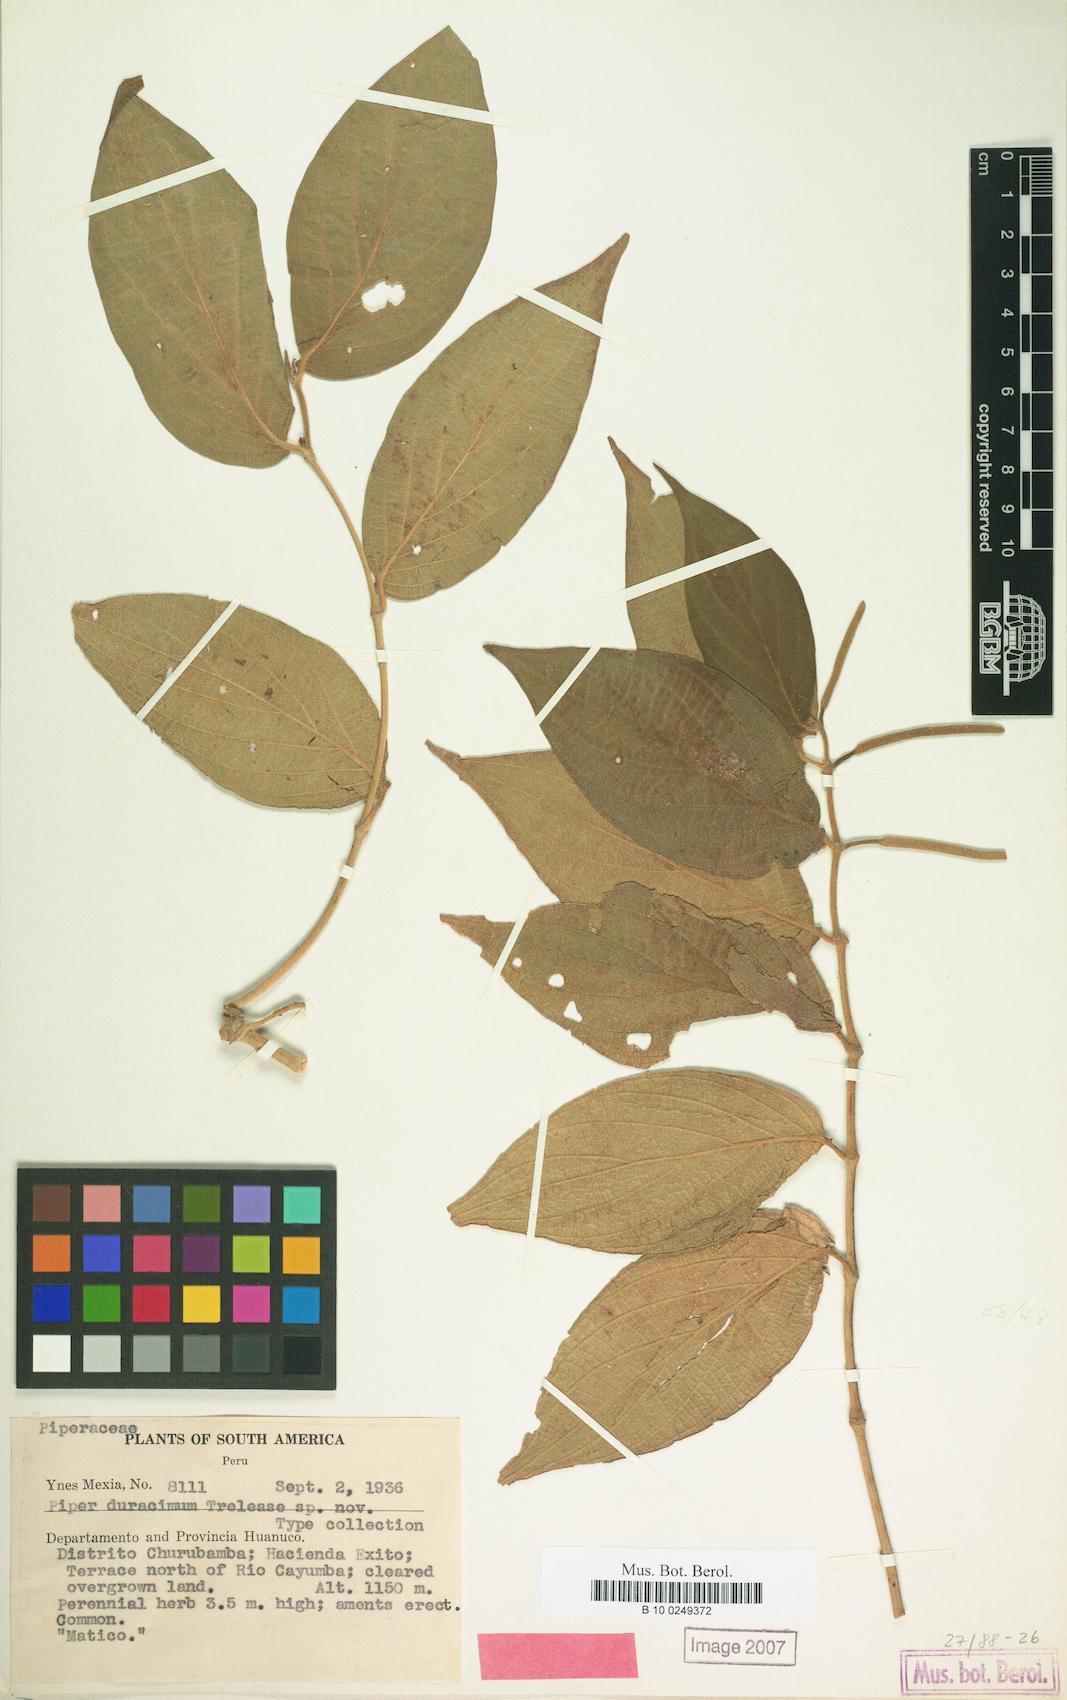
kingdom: Plantae
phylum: Tracheophyta
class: Magnoliopsida
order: Piperales
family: Piperaceae
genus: Piper
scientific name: Piper
